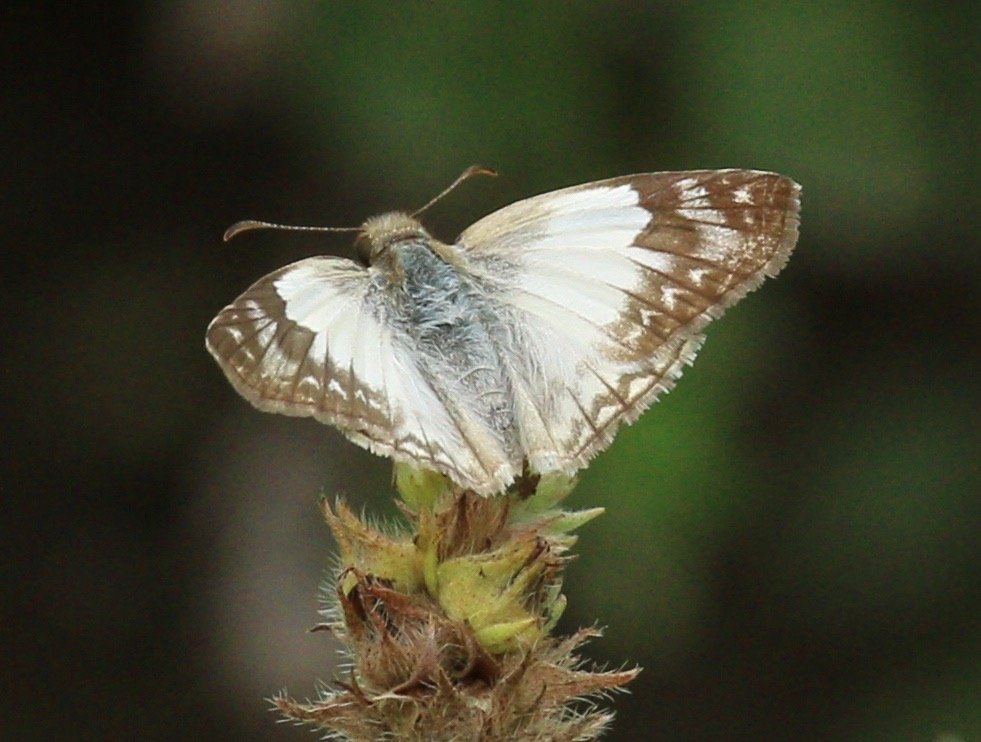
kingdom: Animalia
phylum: Arthropoda
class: Insecta
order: Lepidoptera
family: Hesperiidae
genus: Heliopetes
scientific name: Heliopetes laviana
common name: Laviana White-Skipper
